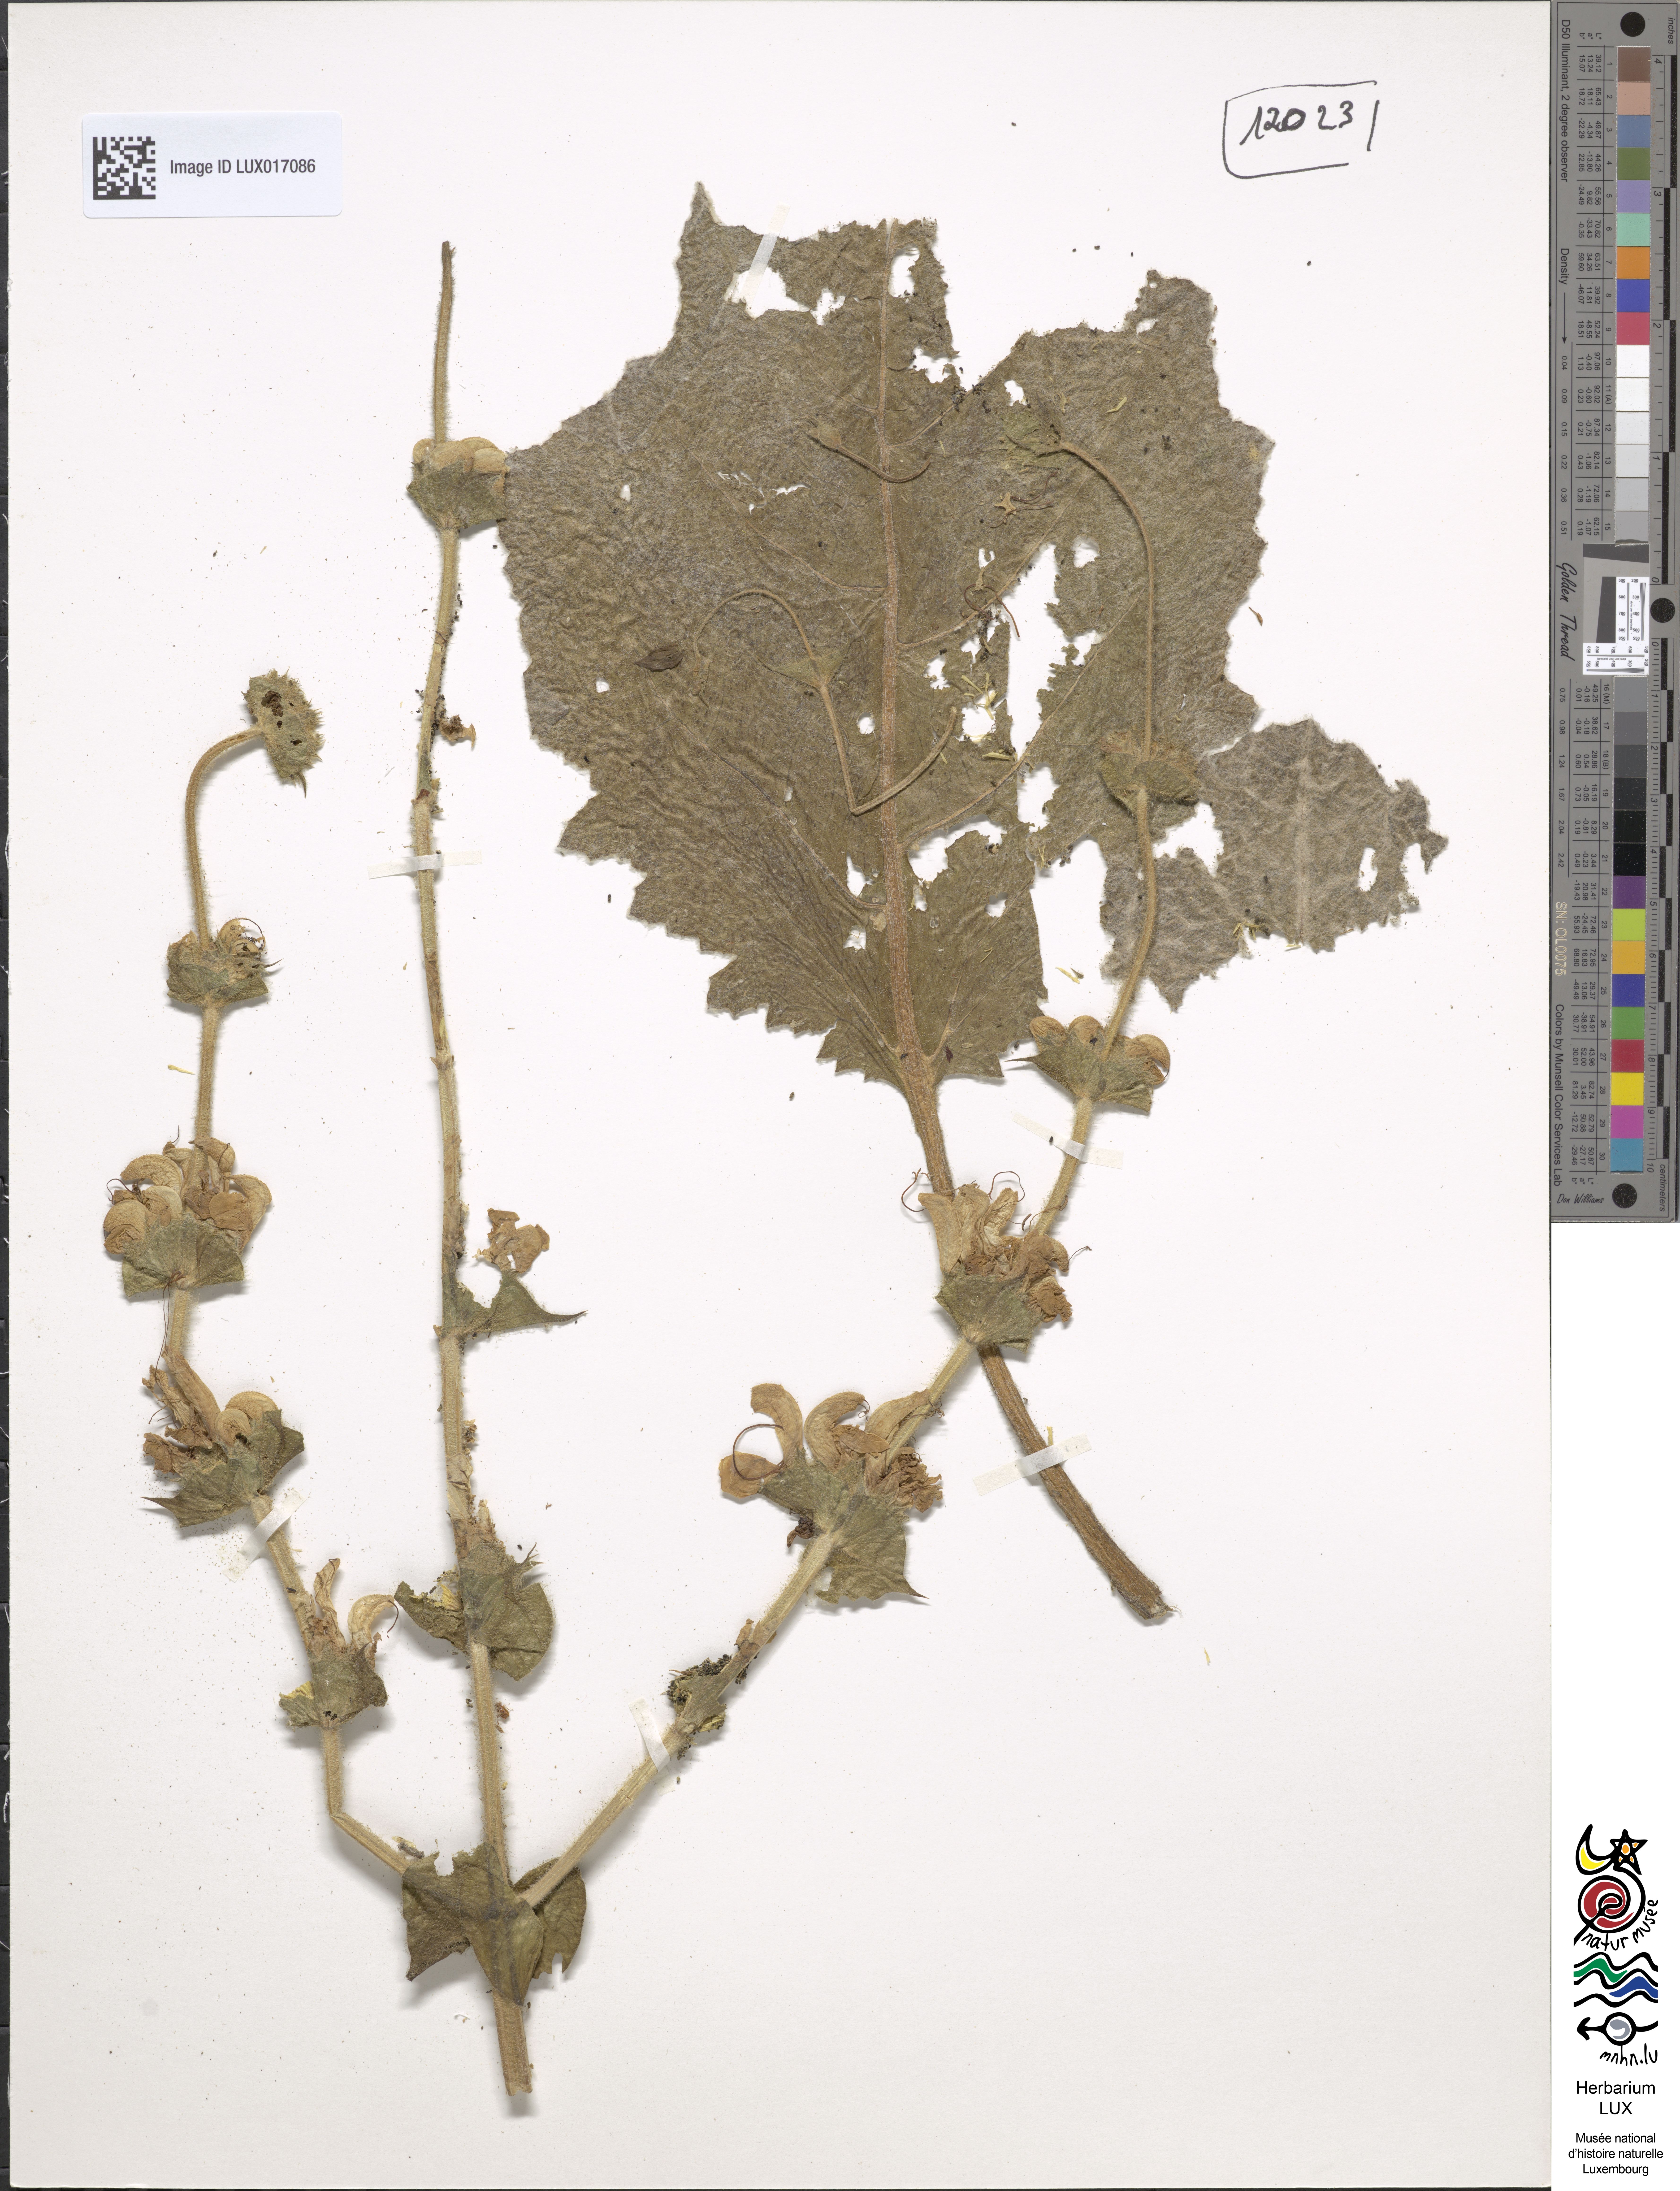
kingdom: Plantae
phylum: Tracheophyta
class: Magnoliopsida
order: Lamiales
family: Lamiaceae
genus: Salvia
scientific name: Salvia aethiopis
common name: Mediterranean sage
